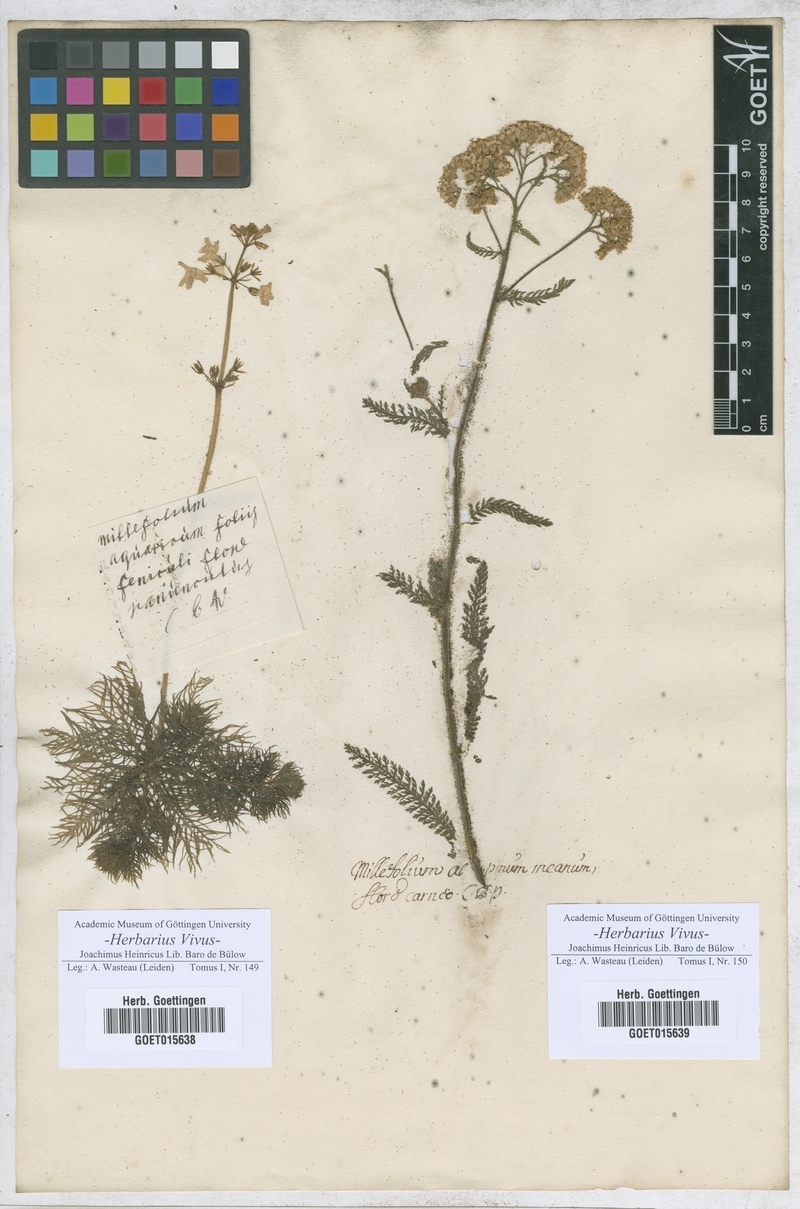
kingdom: Plantae
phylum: Tracheophyta
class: Magnoliopsida
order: Asterales
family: Asteraceae
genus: Millefolium
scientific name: Millefolium
